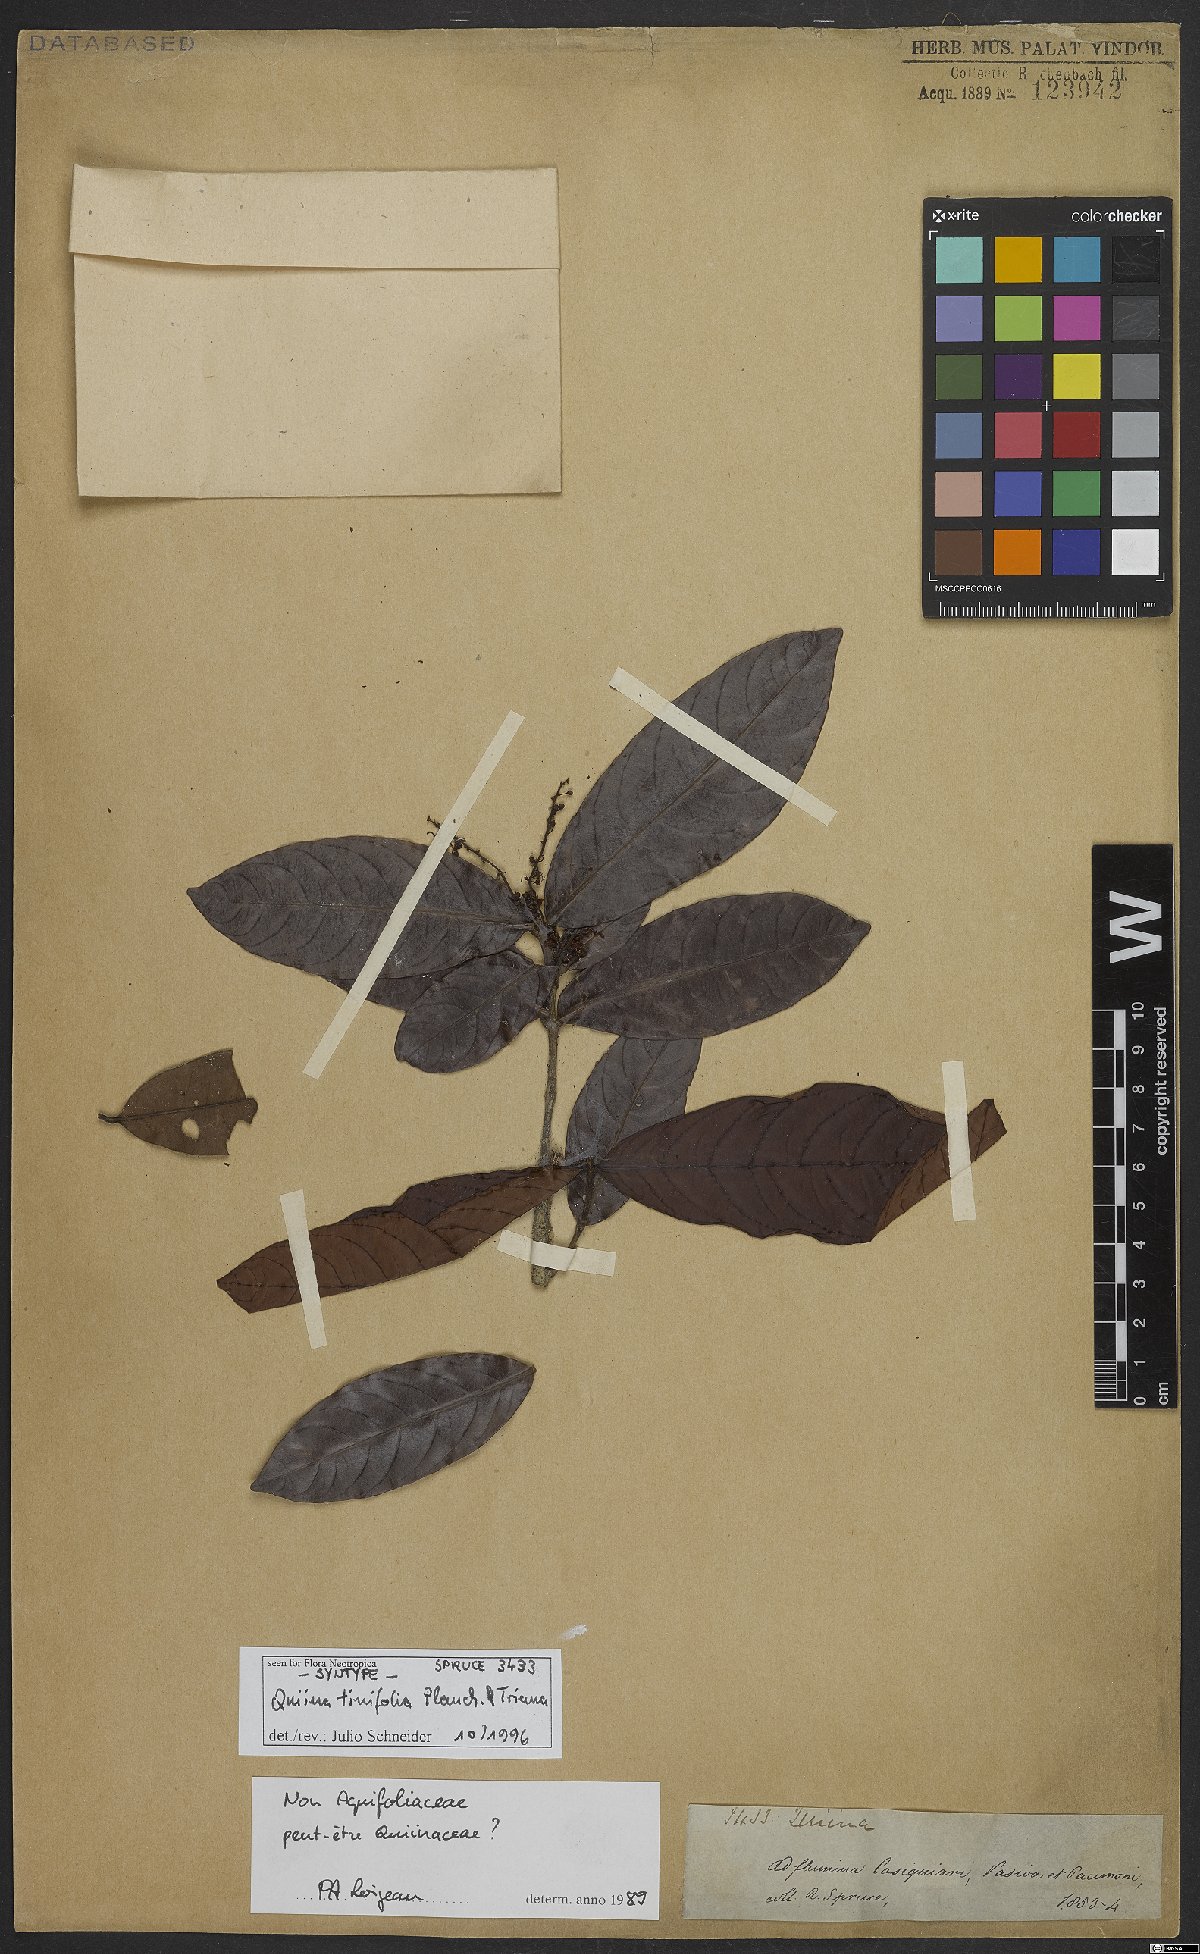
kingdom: Plantae
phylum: Tracheophyta
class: Magnoliopsida
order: Malpighiales
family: Quiinaceae
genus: Quiina
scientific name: Quiina tinifolia
